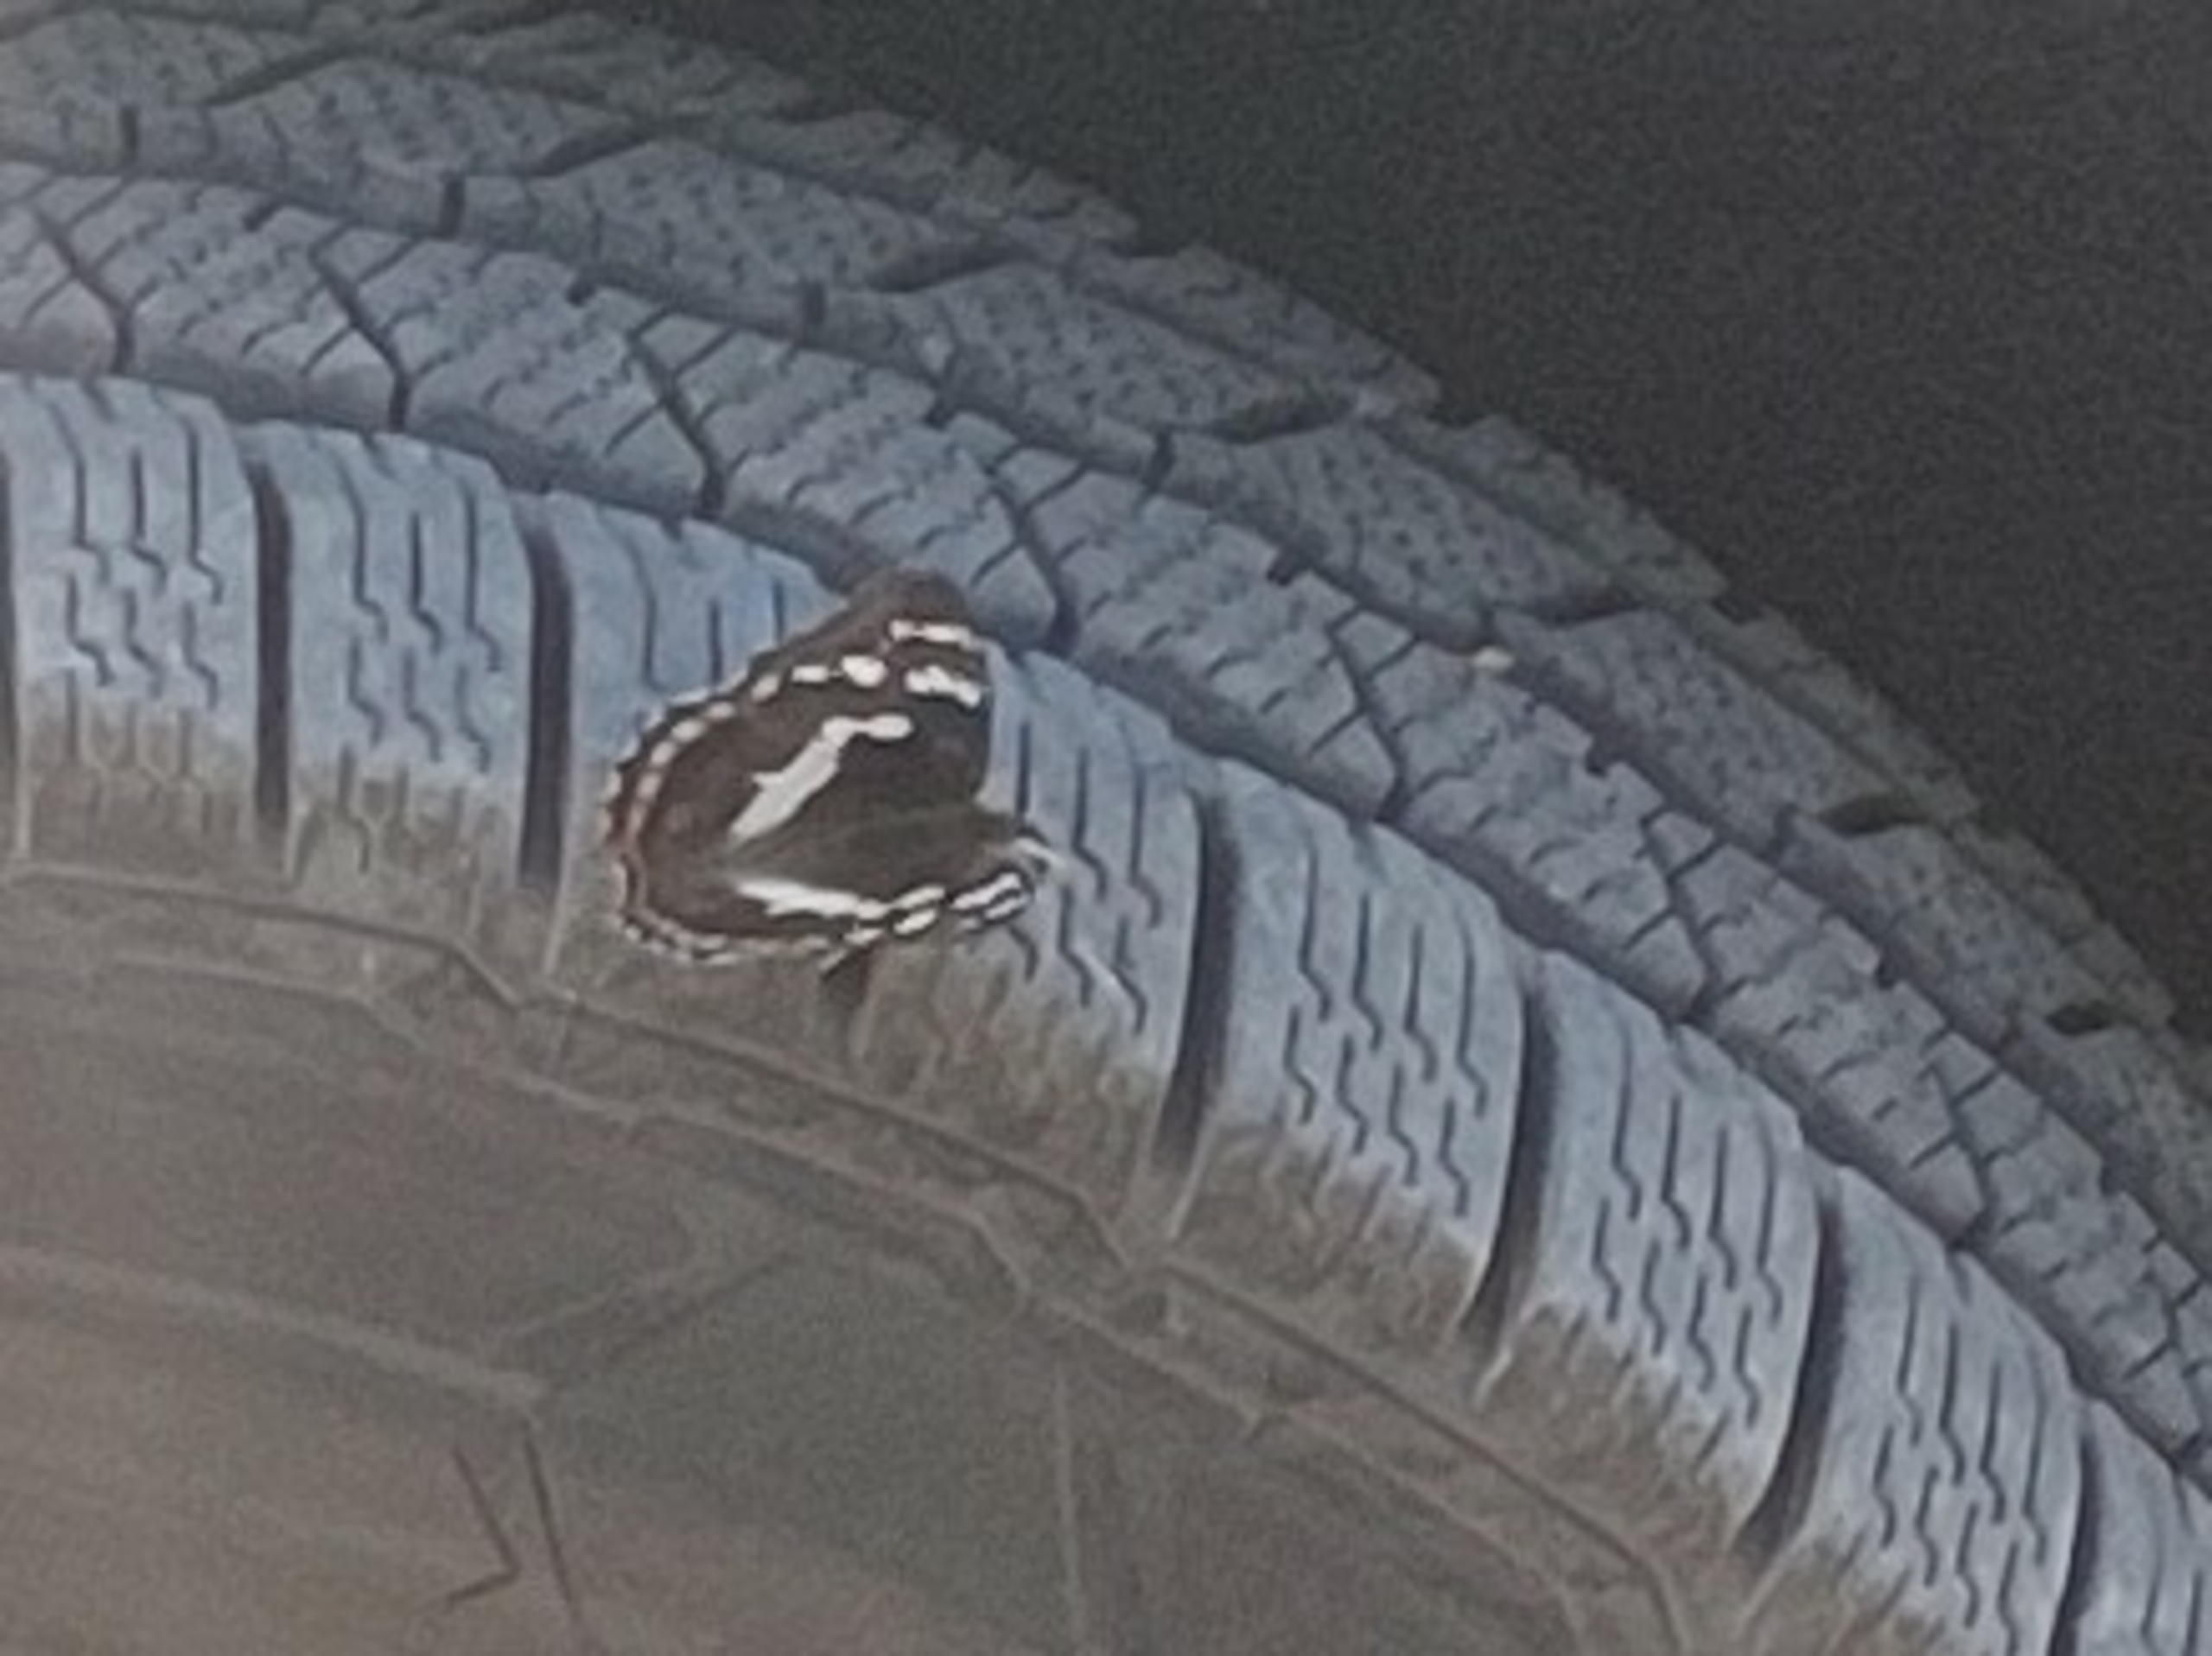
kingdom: Animalia
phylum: Arthropoda
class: Insecta
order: Lepidoptera
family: Nymphalidae
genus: Apatura
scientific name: Apatura iris
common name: Iris
